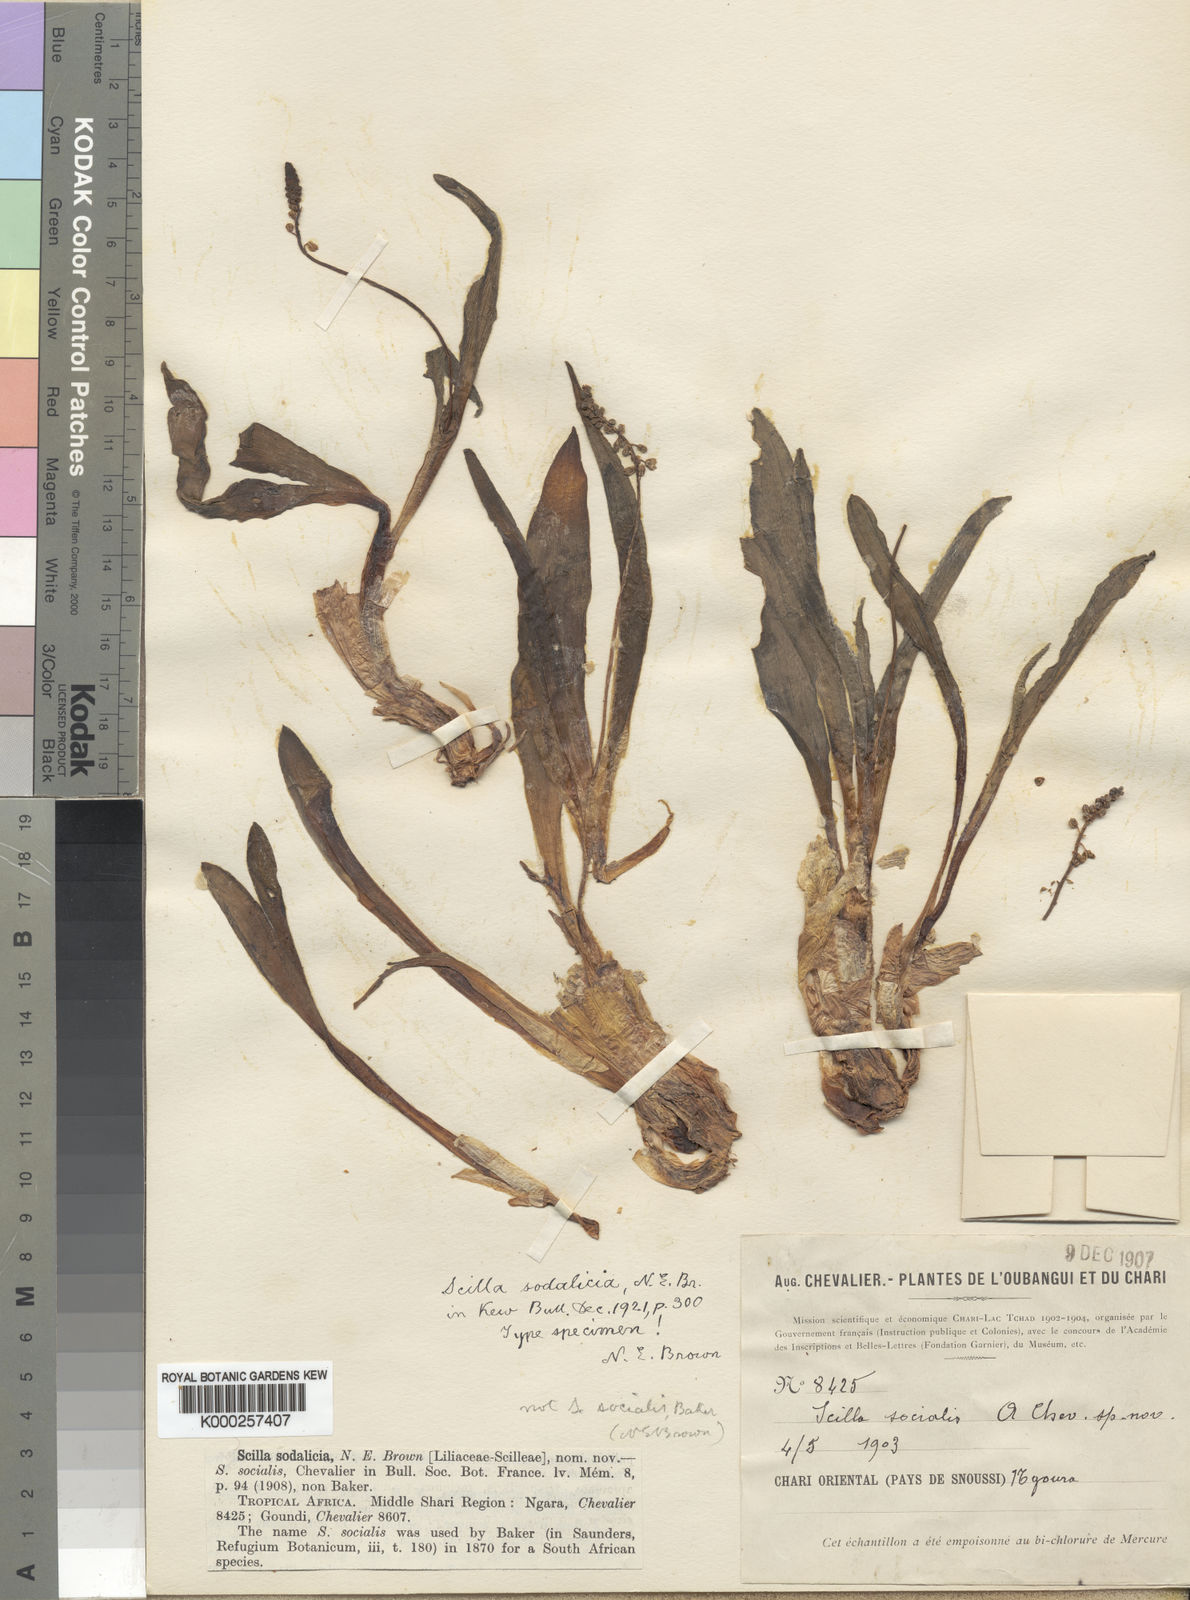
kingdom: Plantae
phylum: Tracheophyta
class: Liliopsida
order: Asparagales
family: Asparagaceae
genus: Scilla
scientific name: Scilla sodalicia
